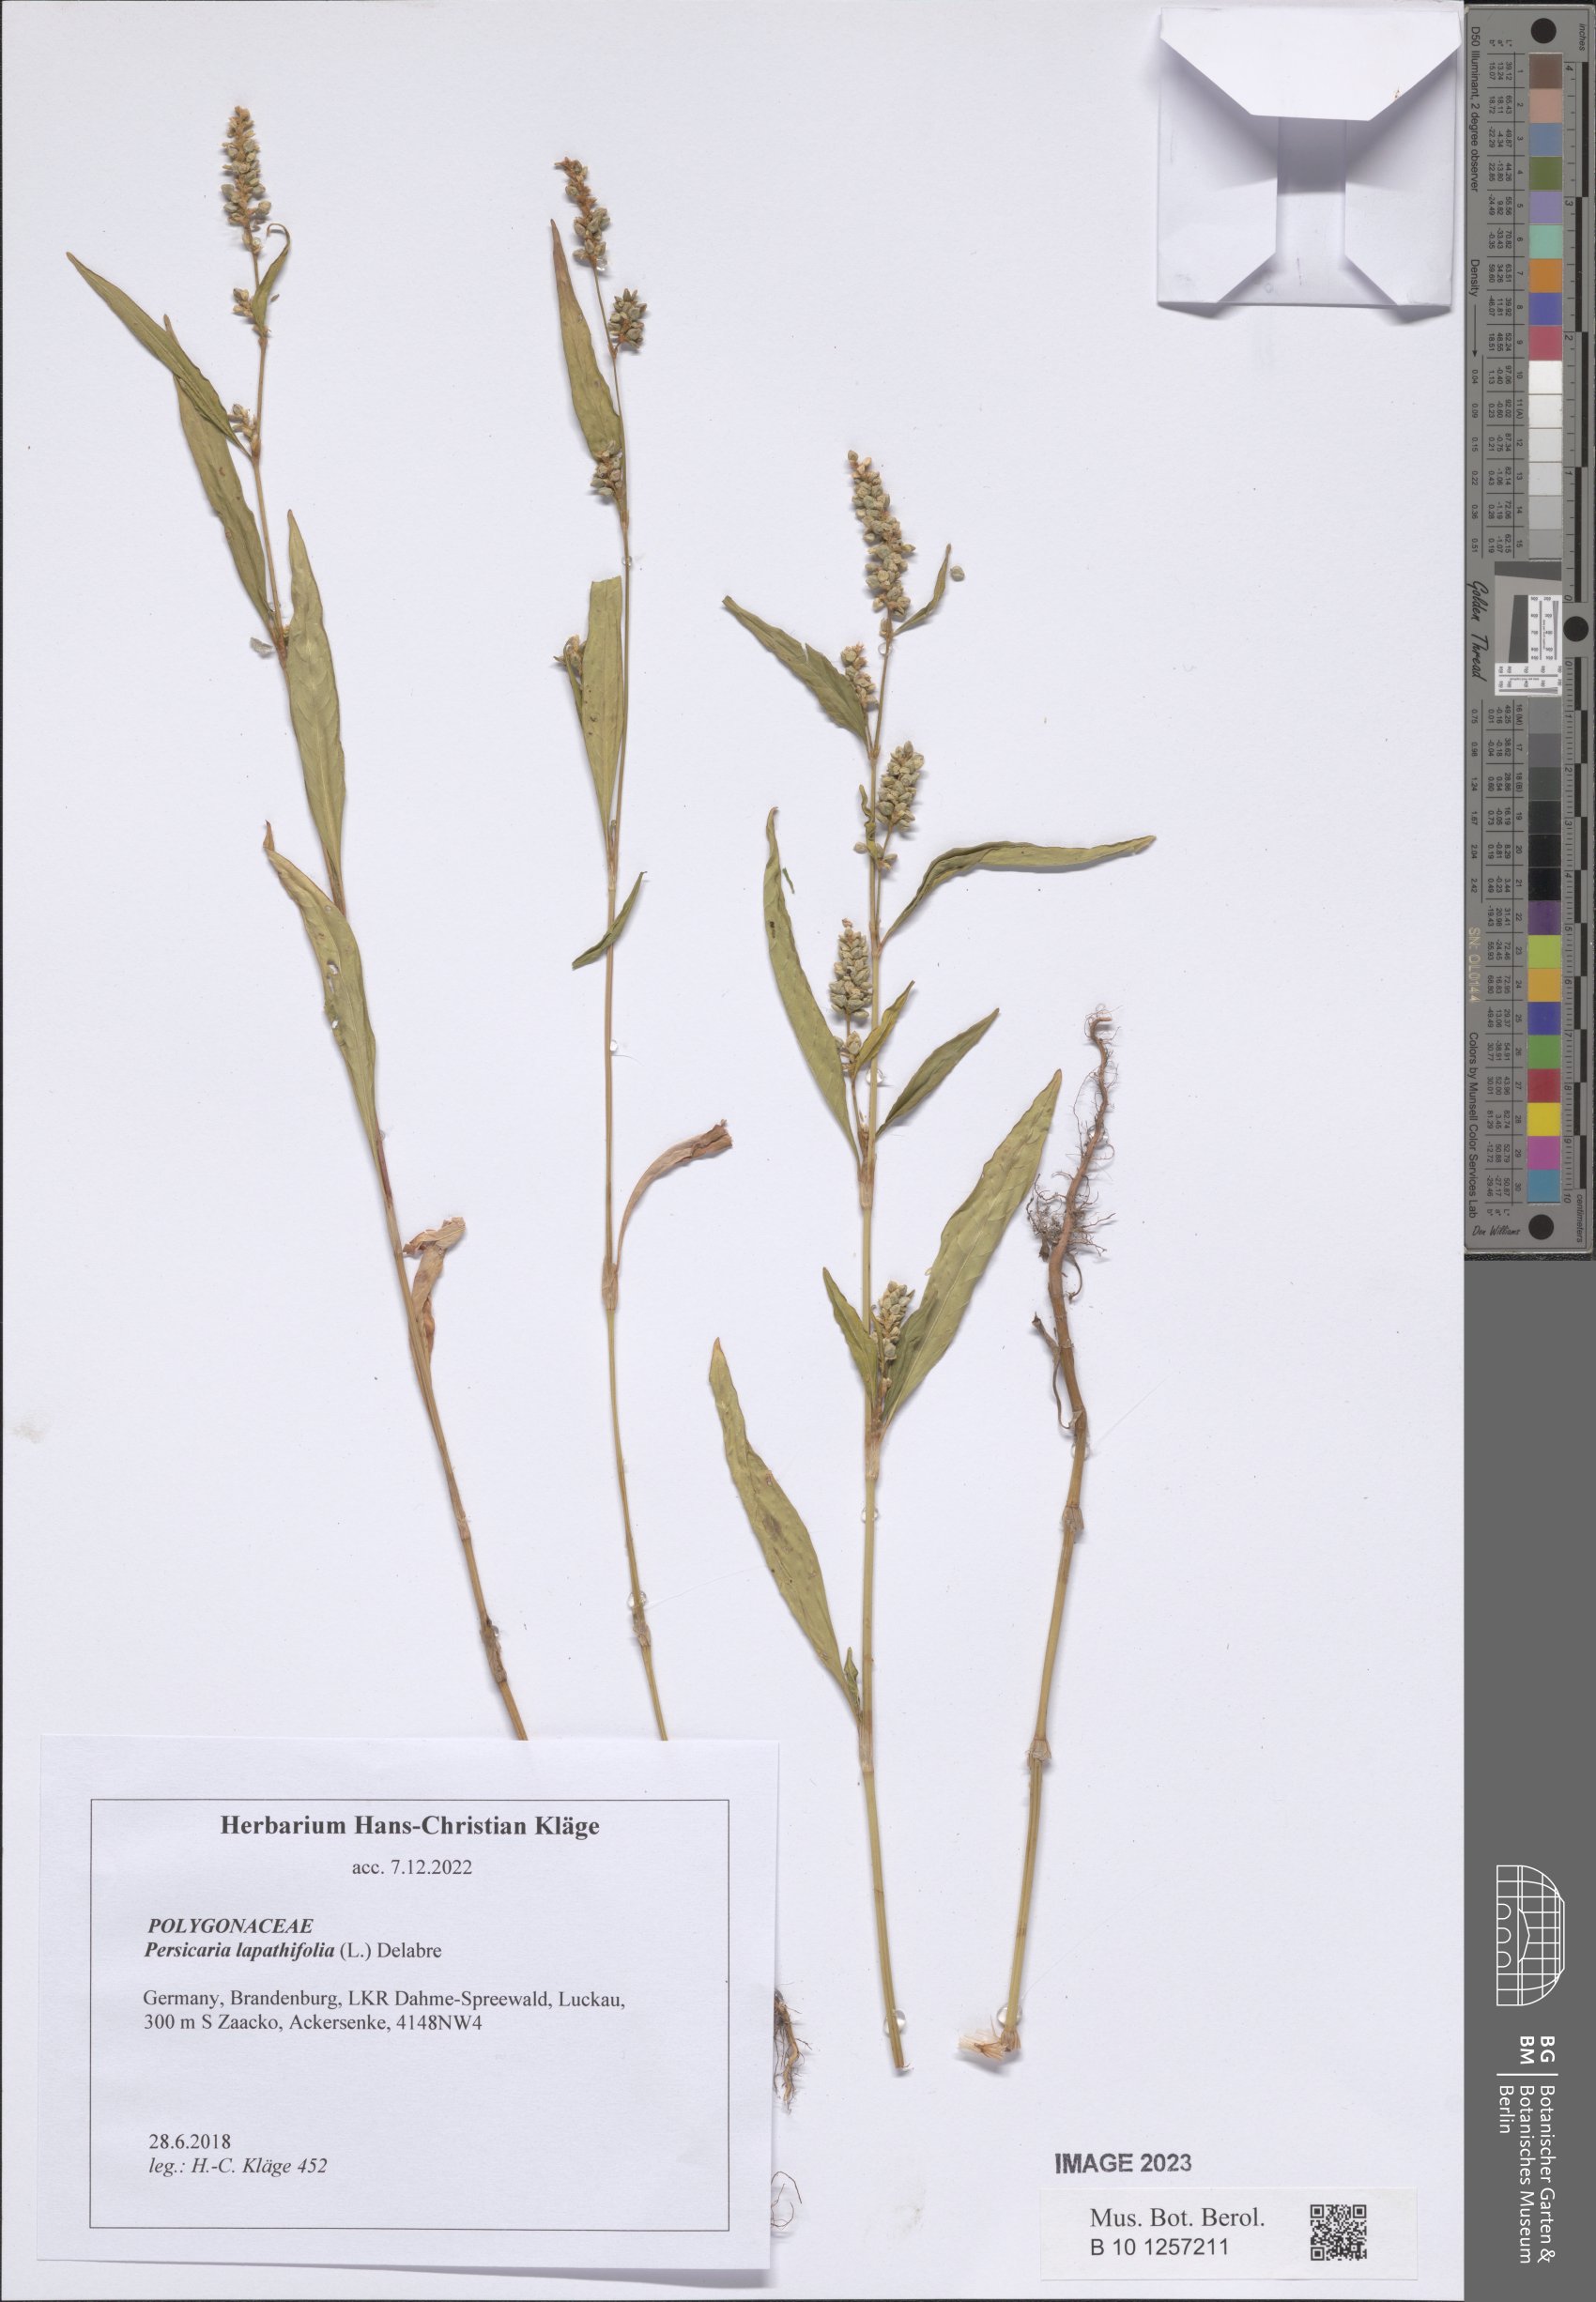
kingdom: Plantae
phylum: Tracheophyta
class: Magnoliopsida
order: Caryophyllales
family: Polygonaceae
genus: Persicaria
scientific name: Persicaria lapathifolia
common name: Curlytop knotweed
